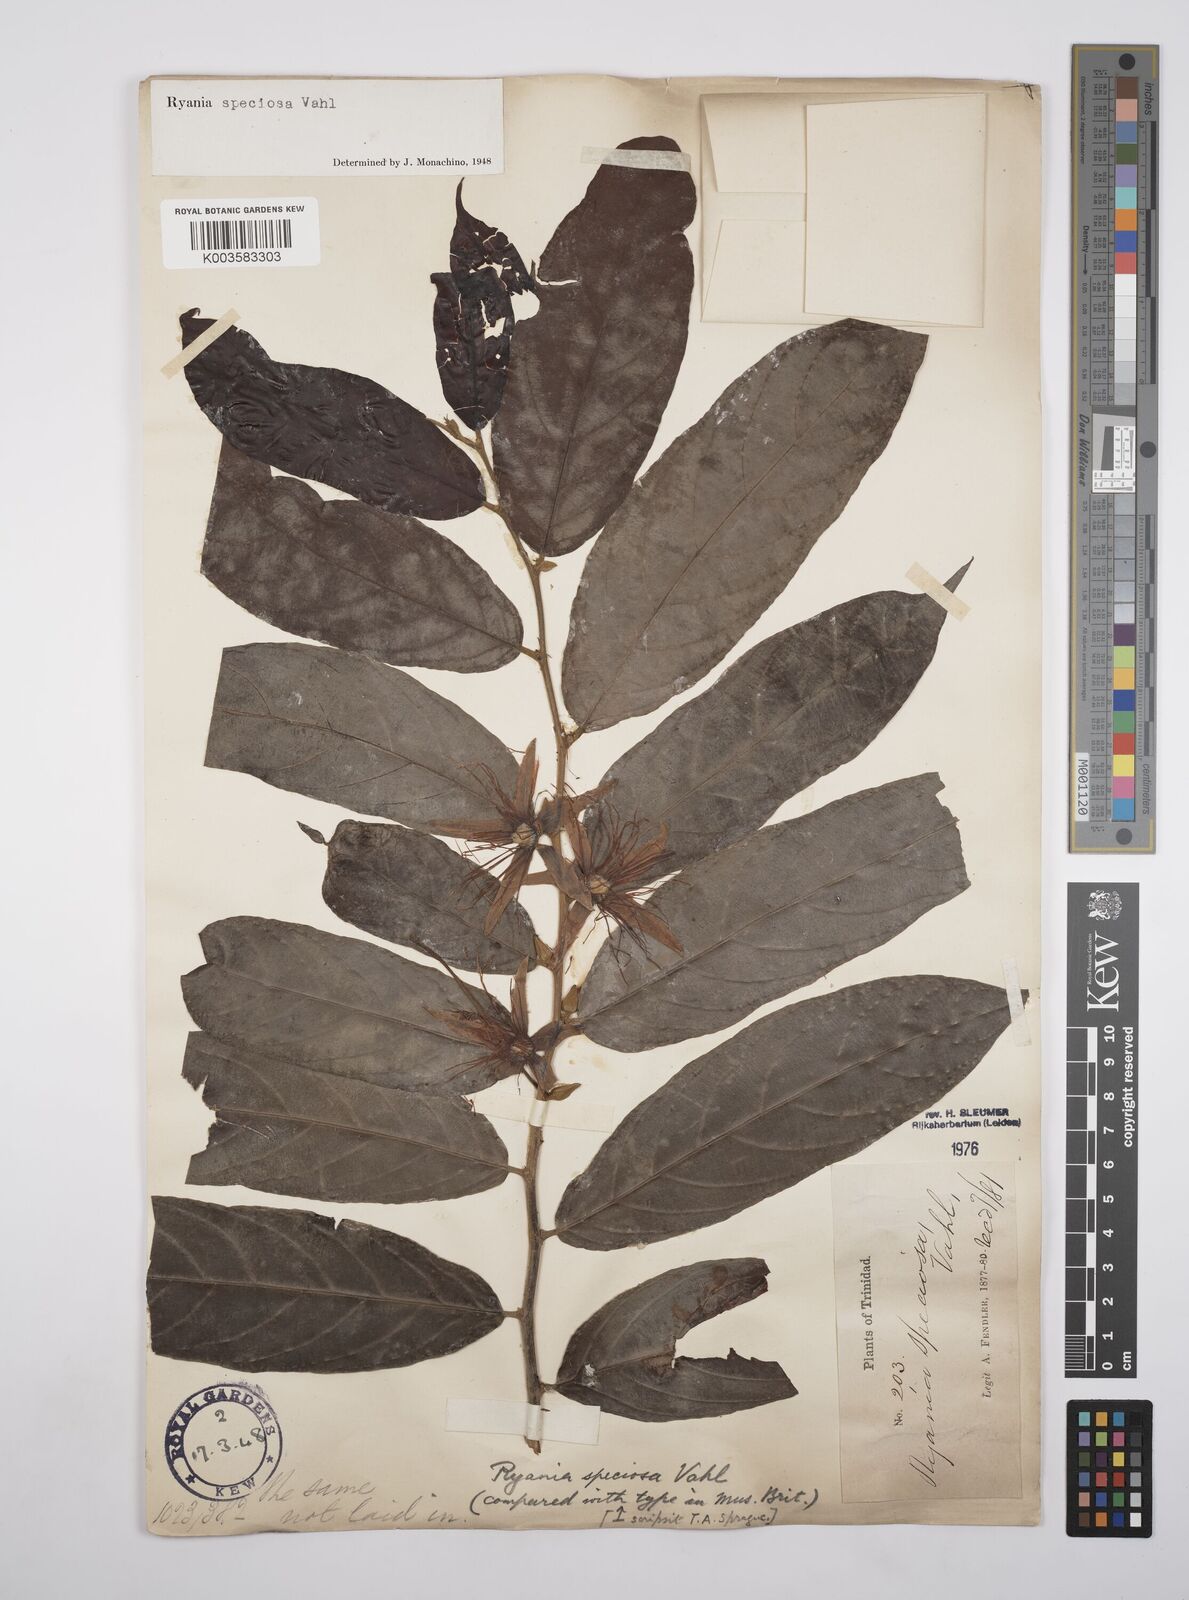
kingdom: Plantae
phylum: Tracheophyta
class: Magnoliopsida
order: Malpighiales
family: Salicaceae
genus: Ryania
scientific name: Ryania speciosa
